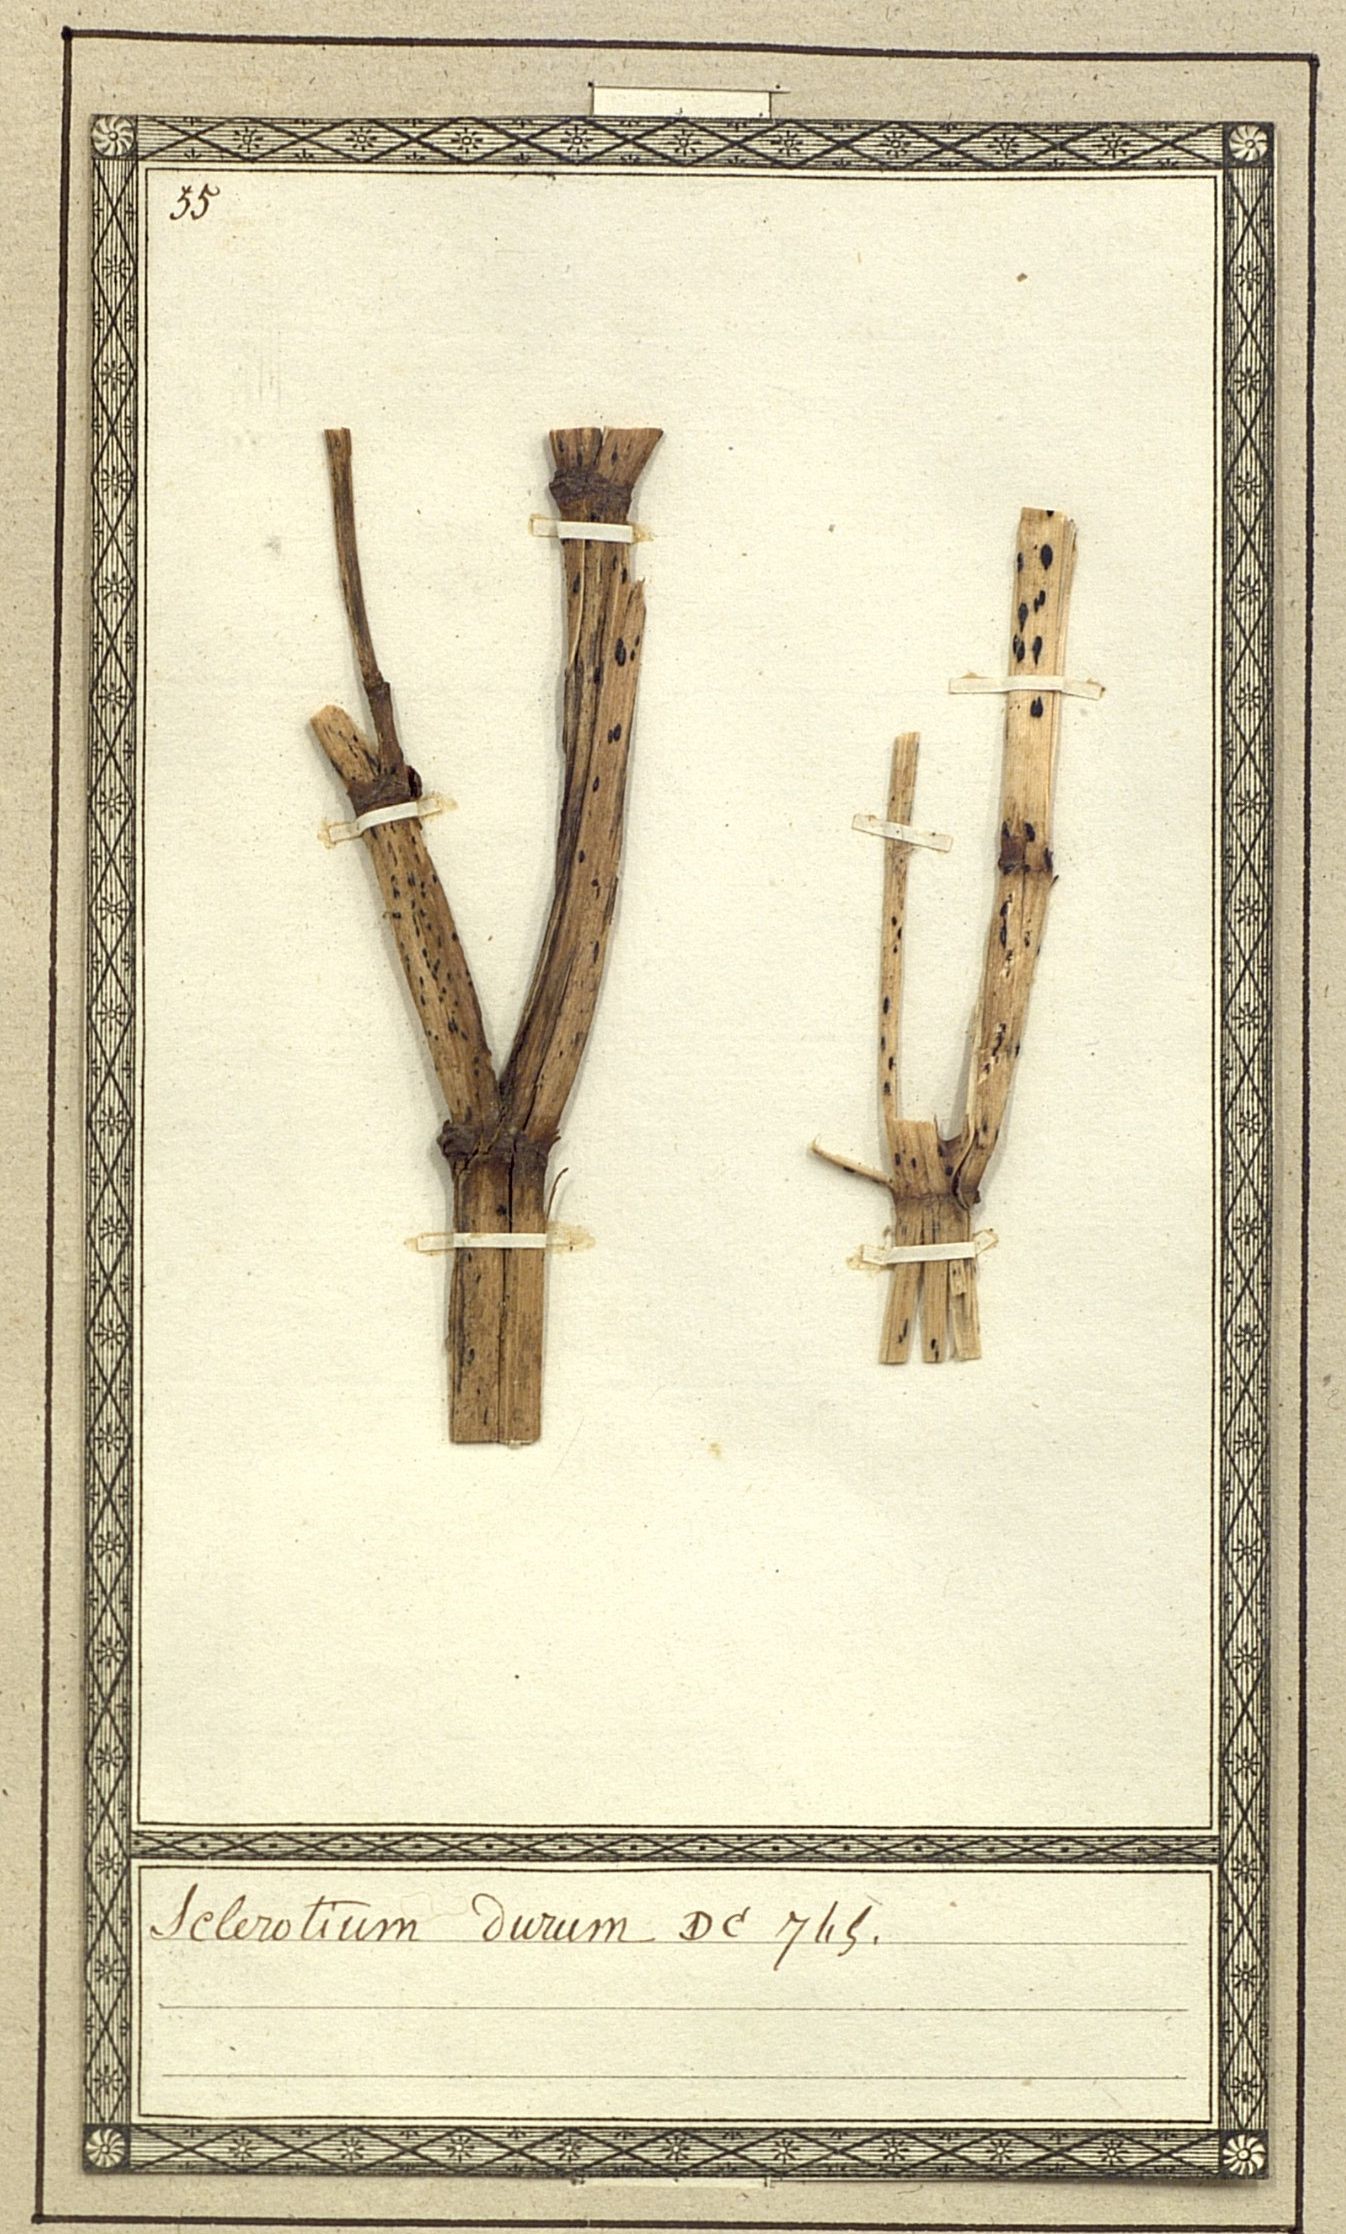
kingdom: Fungi
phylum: Basidiomycota
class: Agaricomycetes
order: Agaricales
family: Typhulaceae
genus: Sclerotium
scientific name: Sclerotium durum
